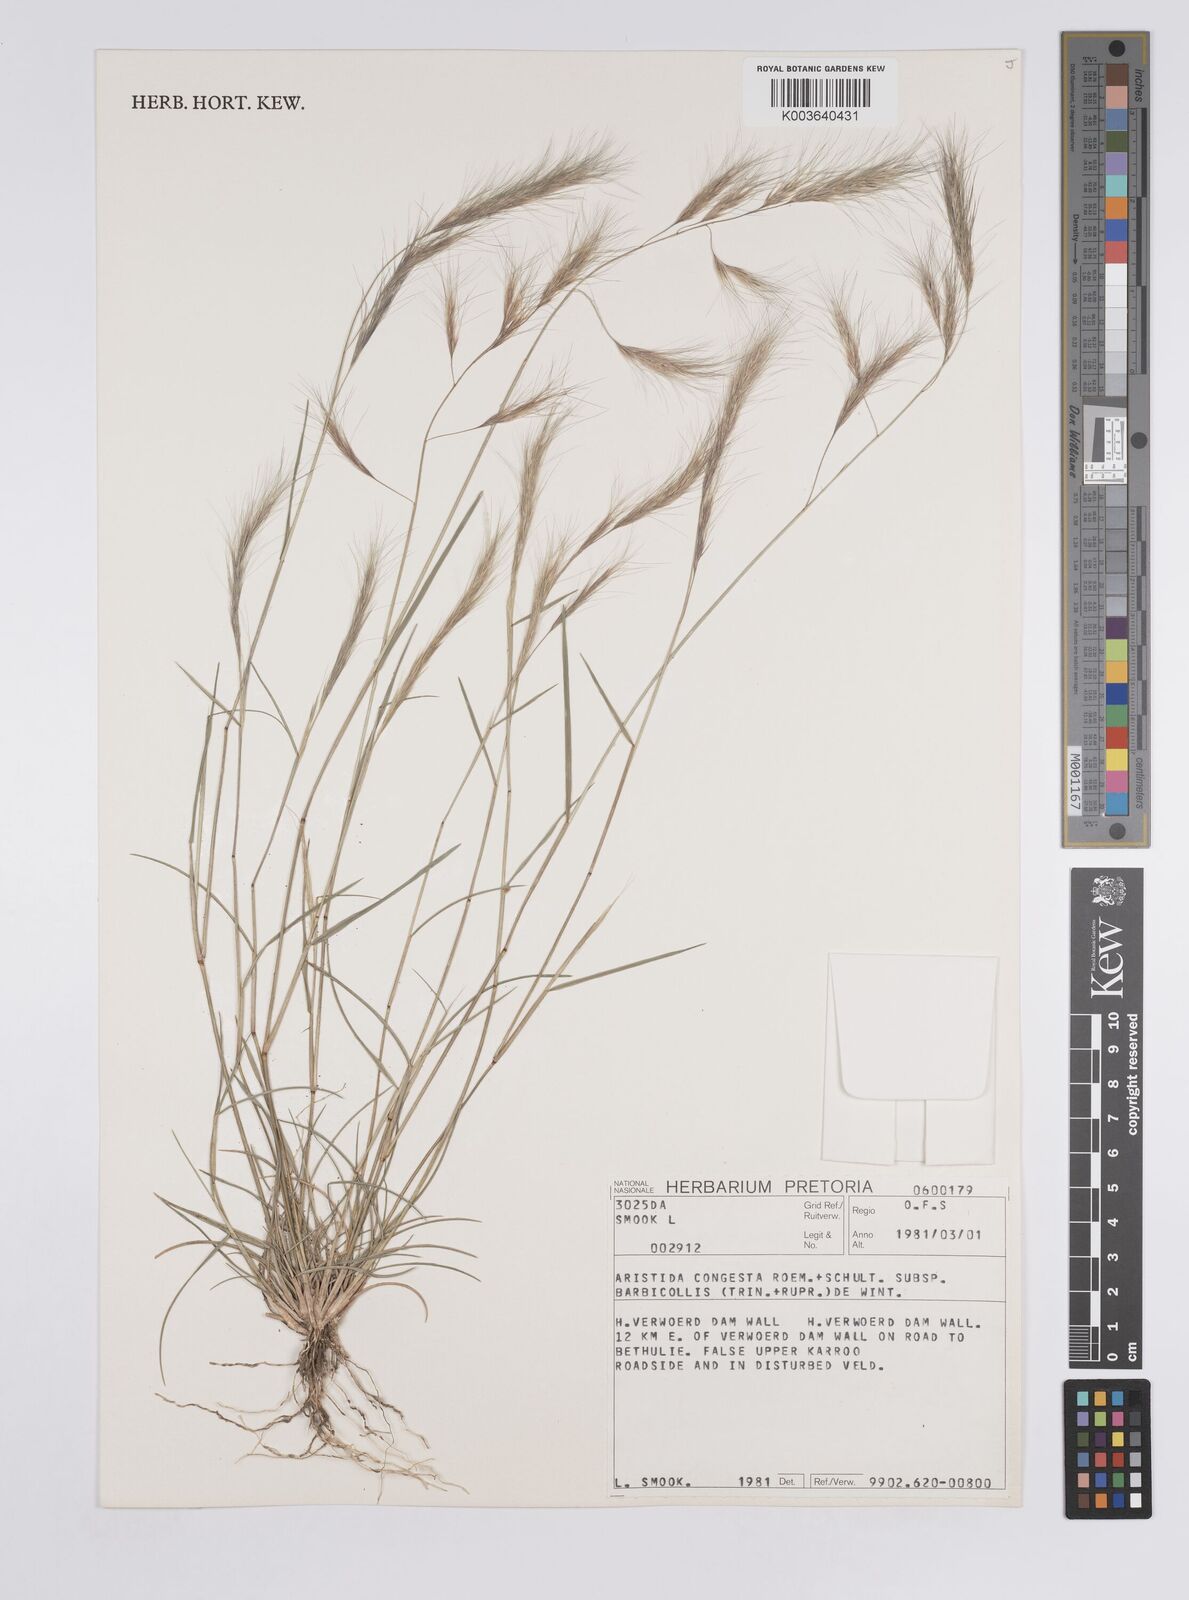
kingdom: Plantae
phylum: Tracheophyta
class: Liliopsida
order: Poales
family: Poaceae
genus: Aristida
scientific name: Aristida barbicollis
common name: Spreading prickle grass
